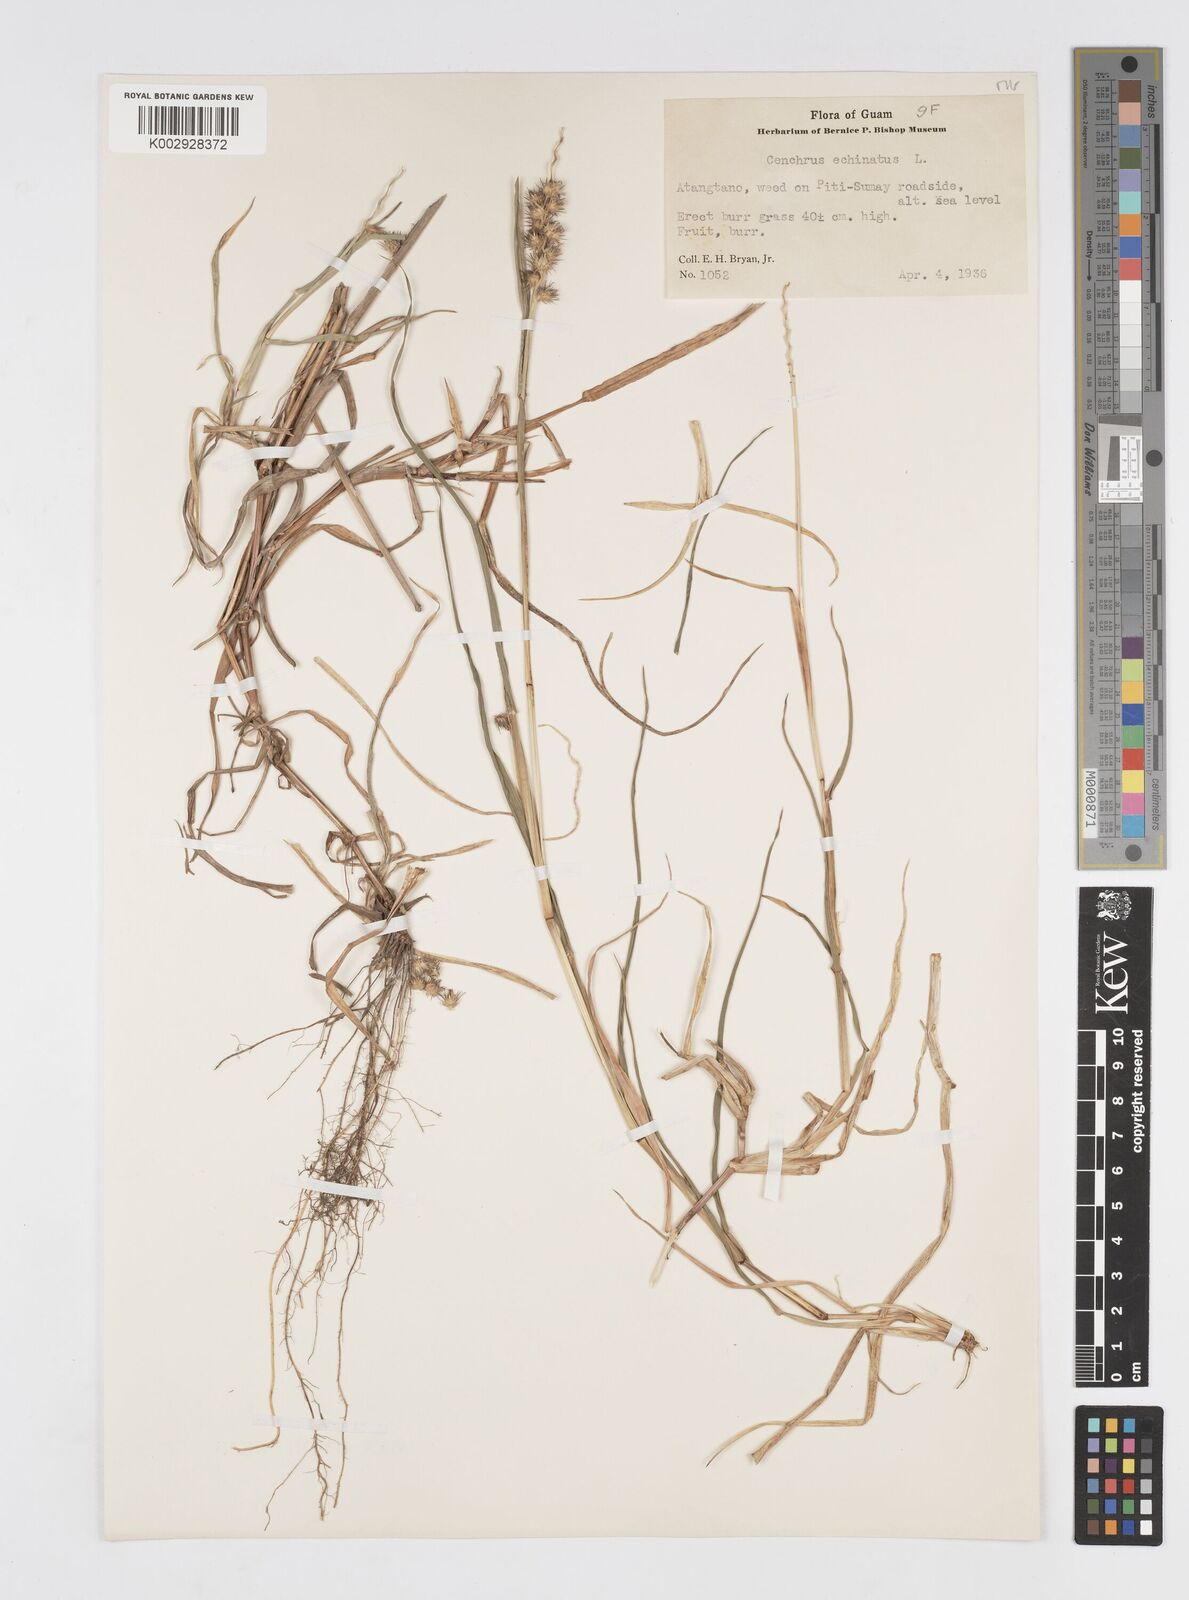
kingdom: Plantae
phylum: Tracheophyta
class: Liliopsida
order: Poales
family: Poaceae
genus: Cenchrus
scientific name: Cenchrus echinatus
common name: Southern sandbur
